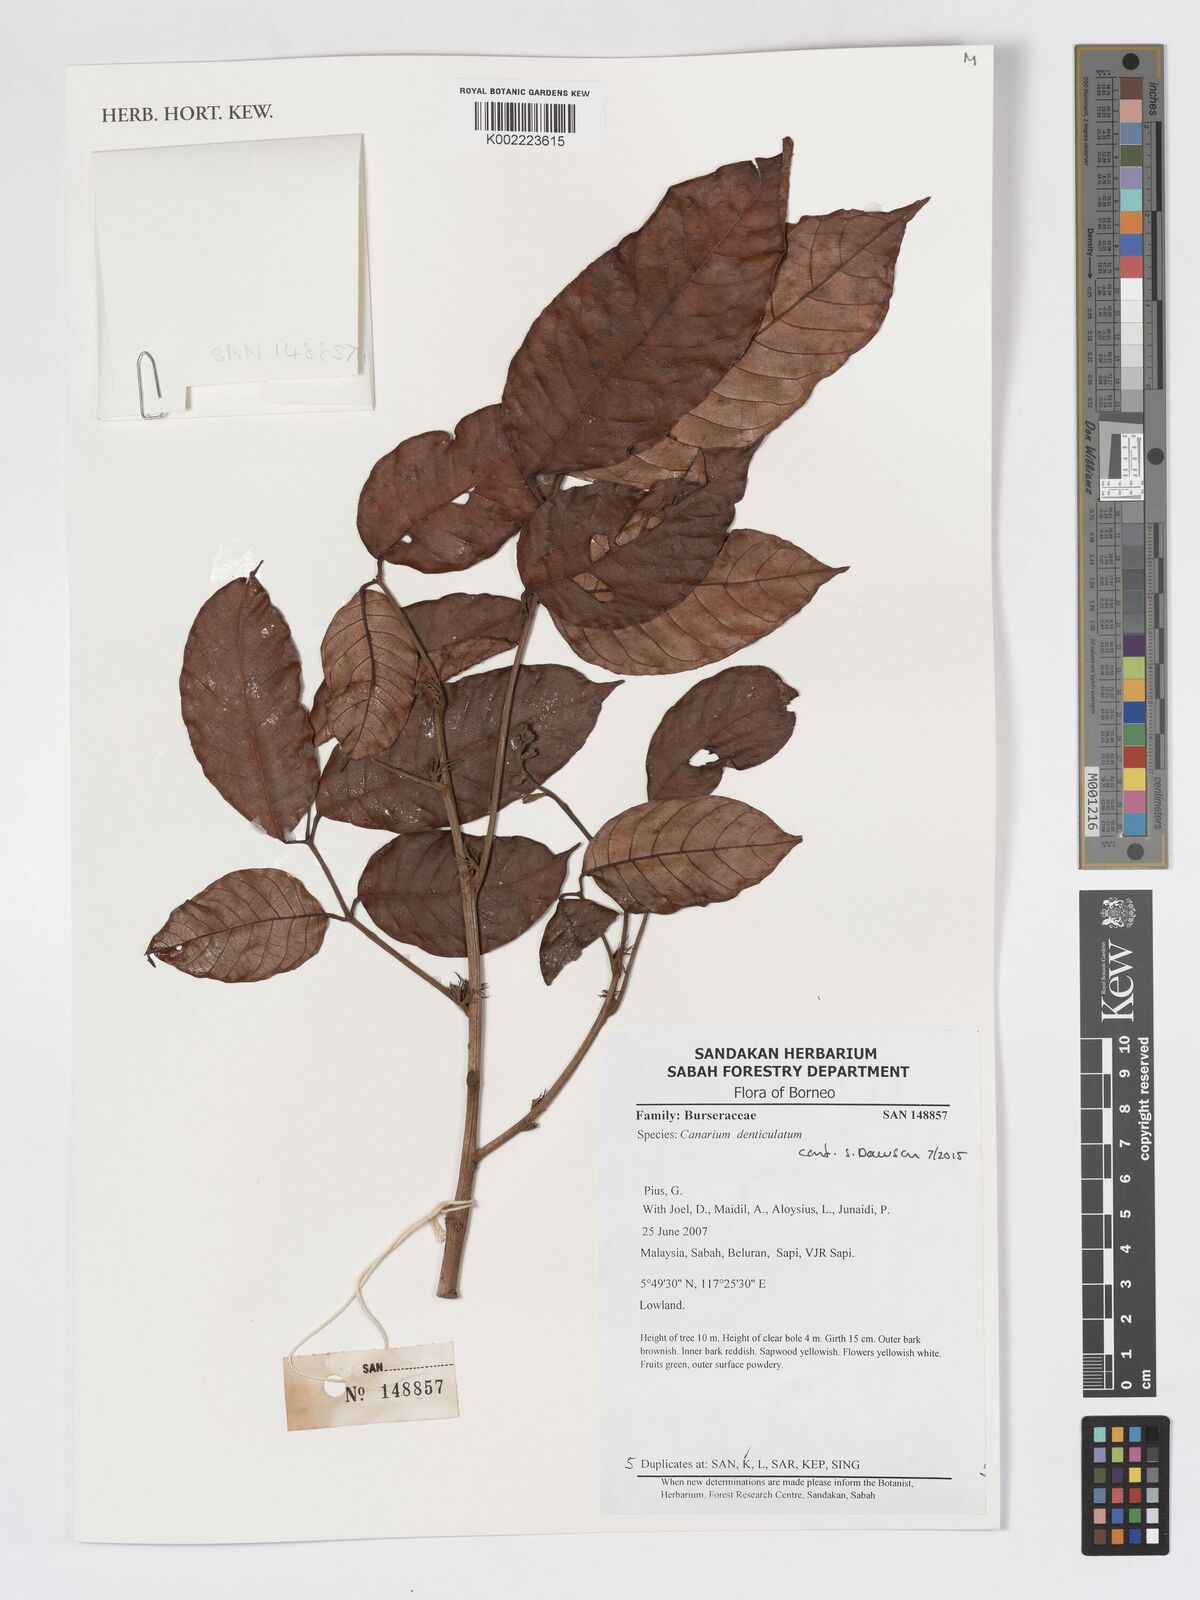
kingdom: Plantae
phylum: Tracheophyta
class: Magnoliopsida
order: Sapindales
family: Burseraceae
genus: Canarium
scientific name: Canarium denticulatum
